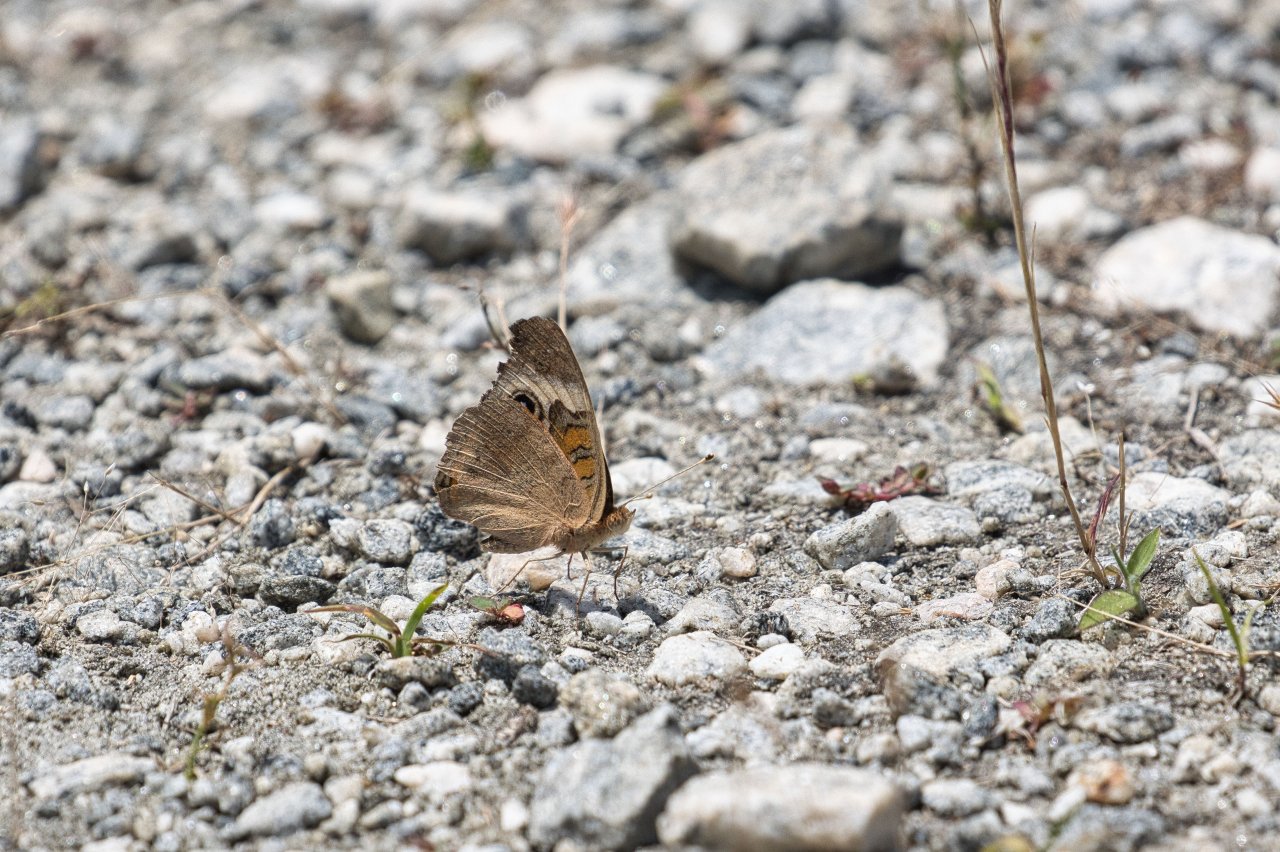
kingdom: Animalia
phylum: Arthropoda
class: Insecta
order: Lepidoptera
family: Nymphalidae
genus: Junonia
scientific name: Junonia coenia
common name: Common Buckeye
